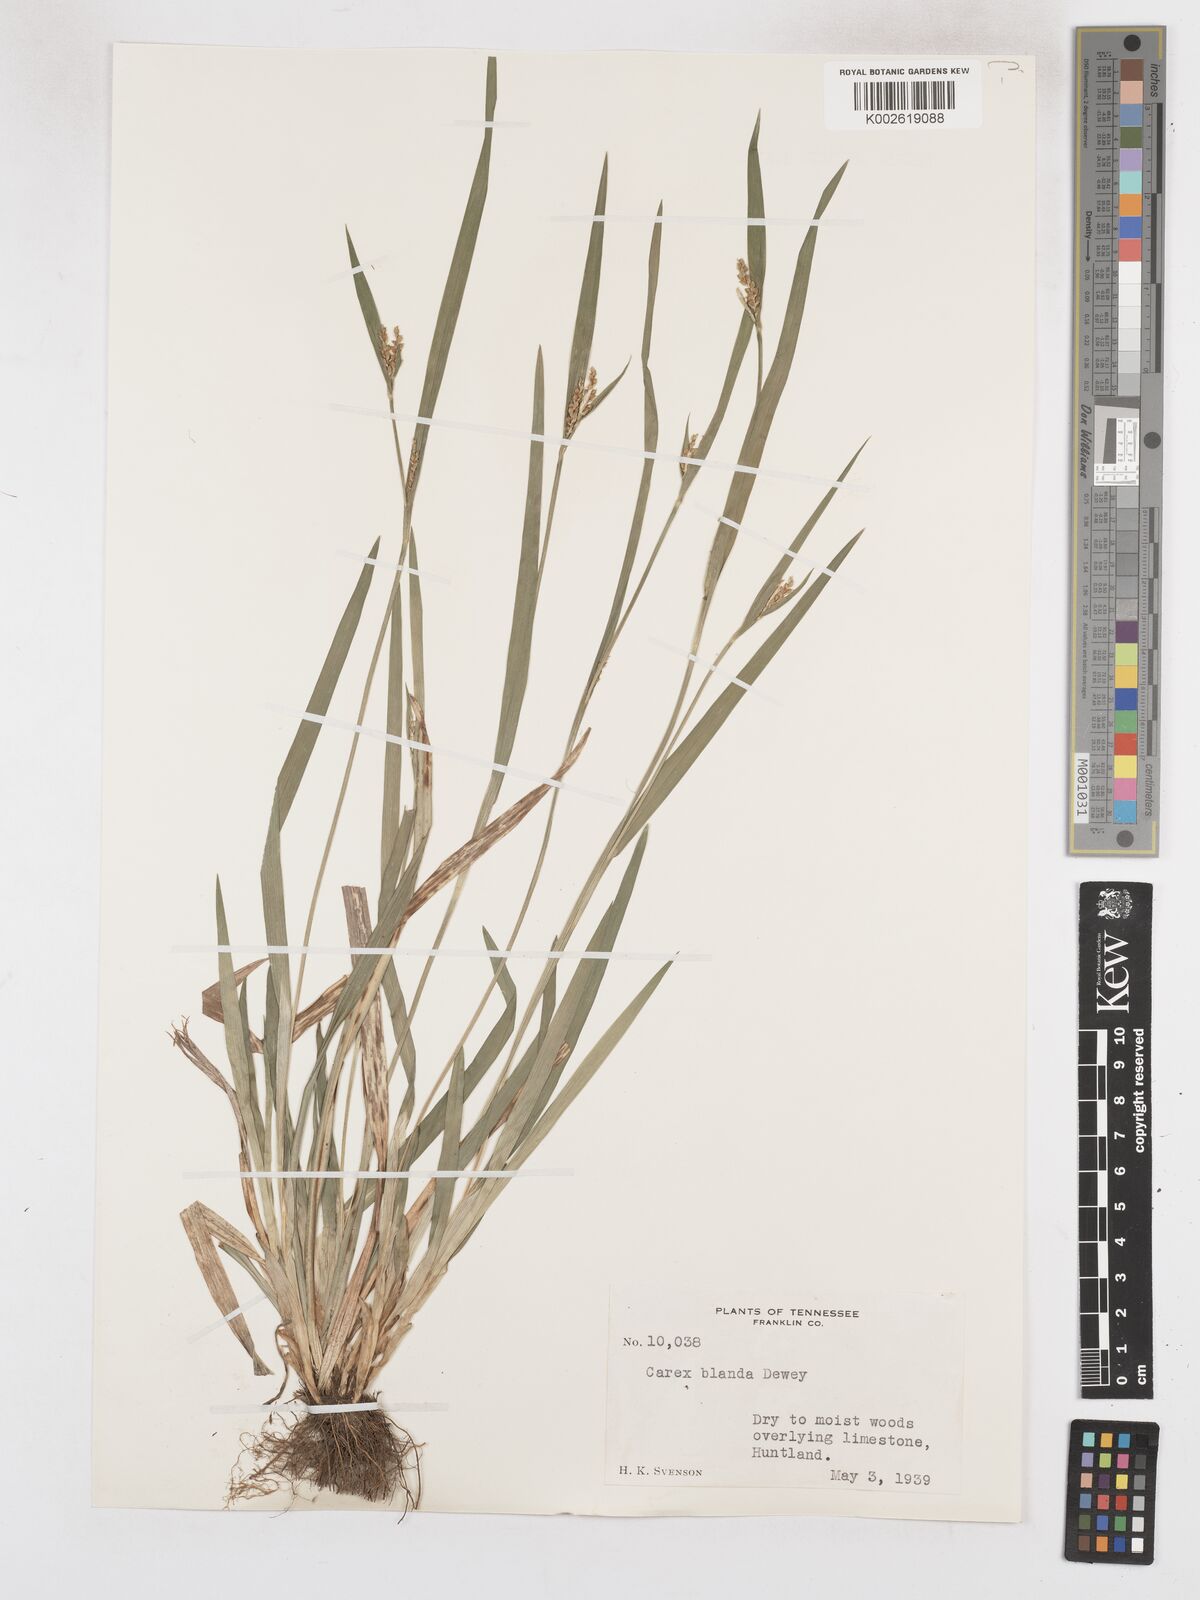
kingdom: Plantae
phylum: Tracheophyta
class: Liliopsida
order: Poales
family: Cyperaceae
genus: Carex
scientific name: Carex blanda
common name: Bland sedge
